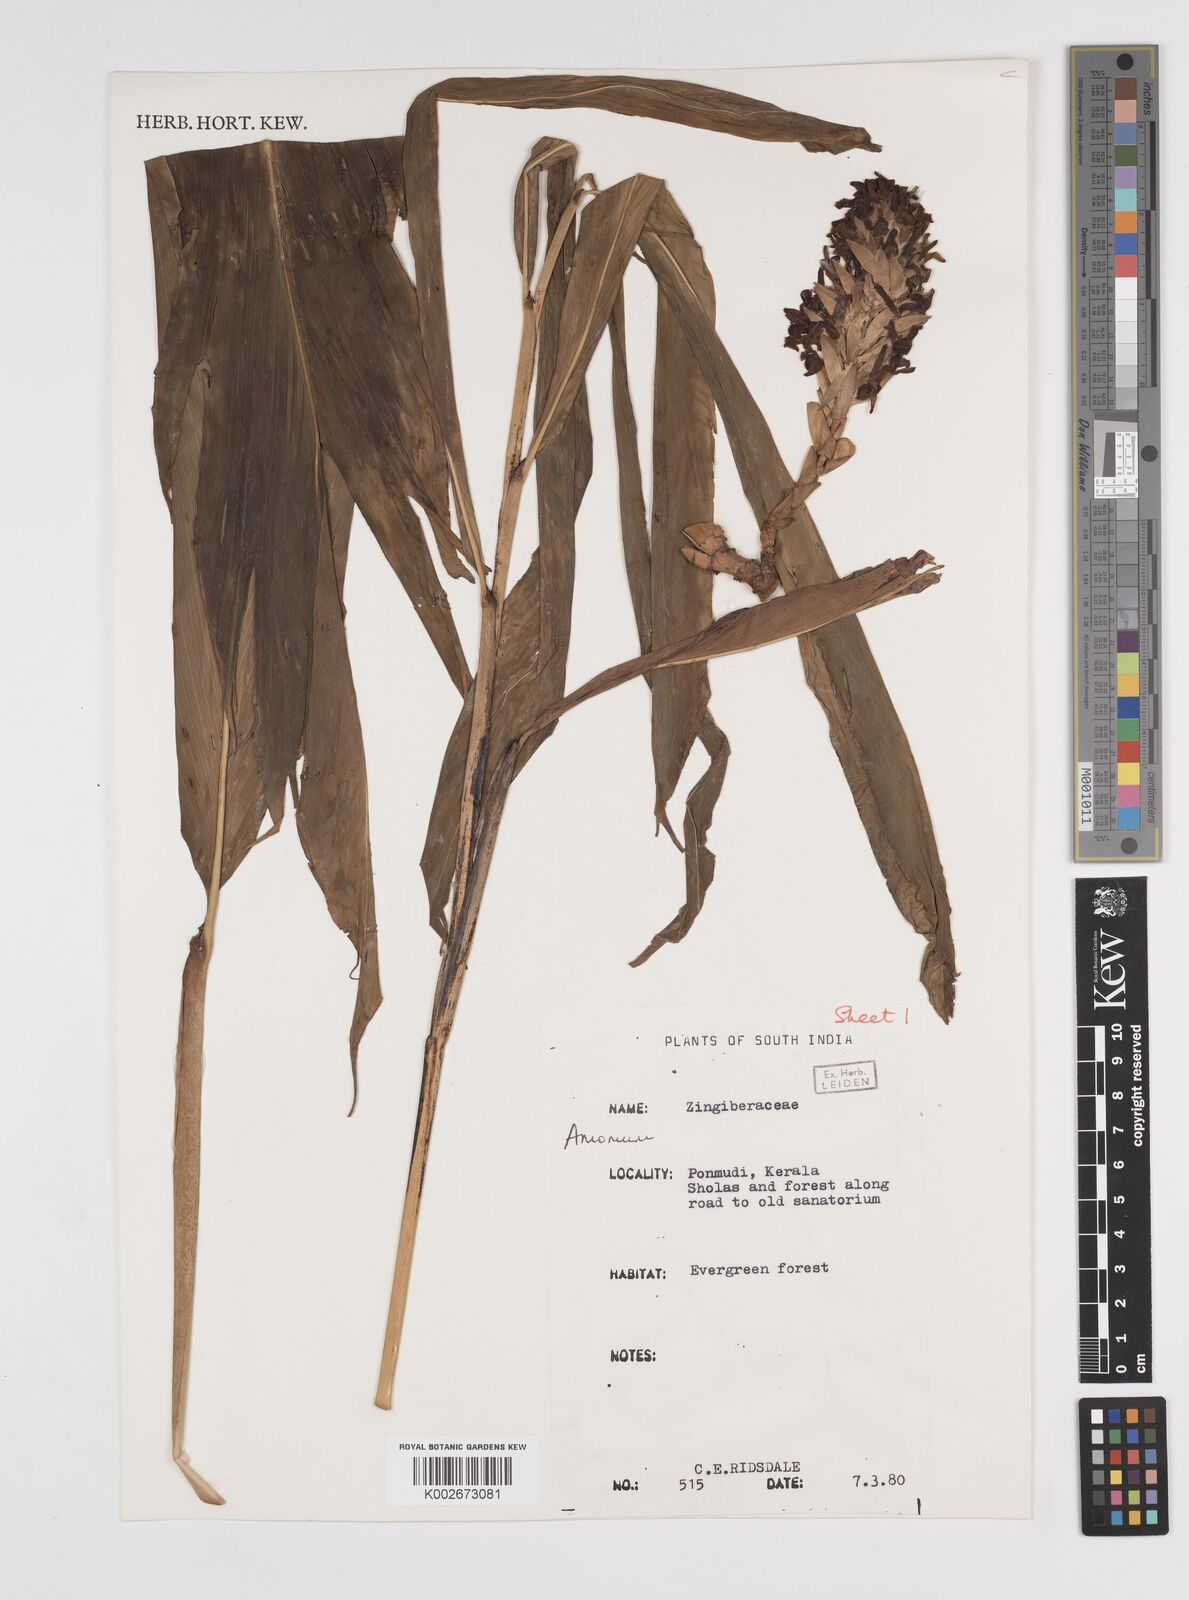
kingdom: Plantae
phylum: Tracheophyta
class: Liliopsida
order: Zingiberales
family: Zingiberaceae
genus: Amomum
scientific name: Amomum
